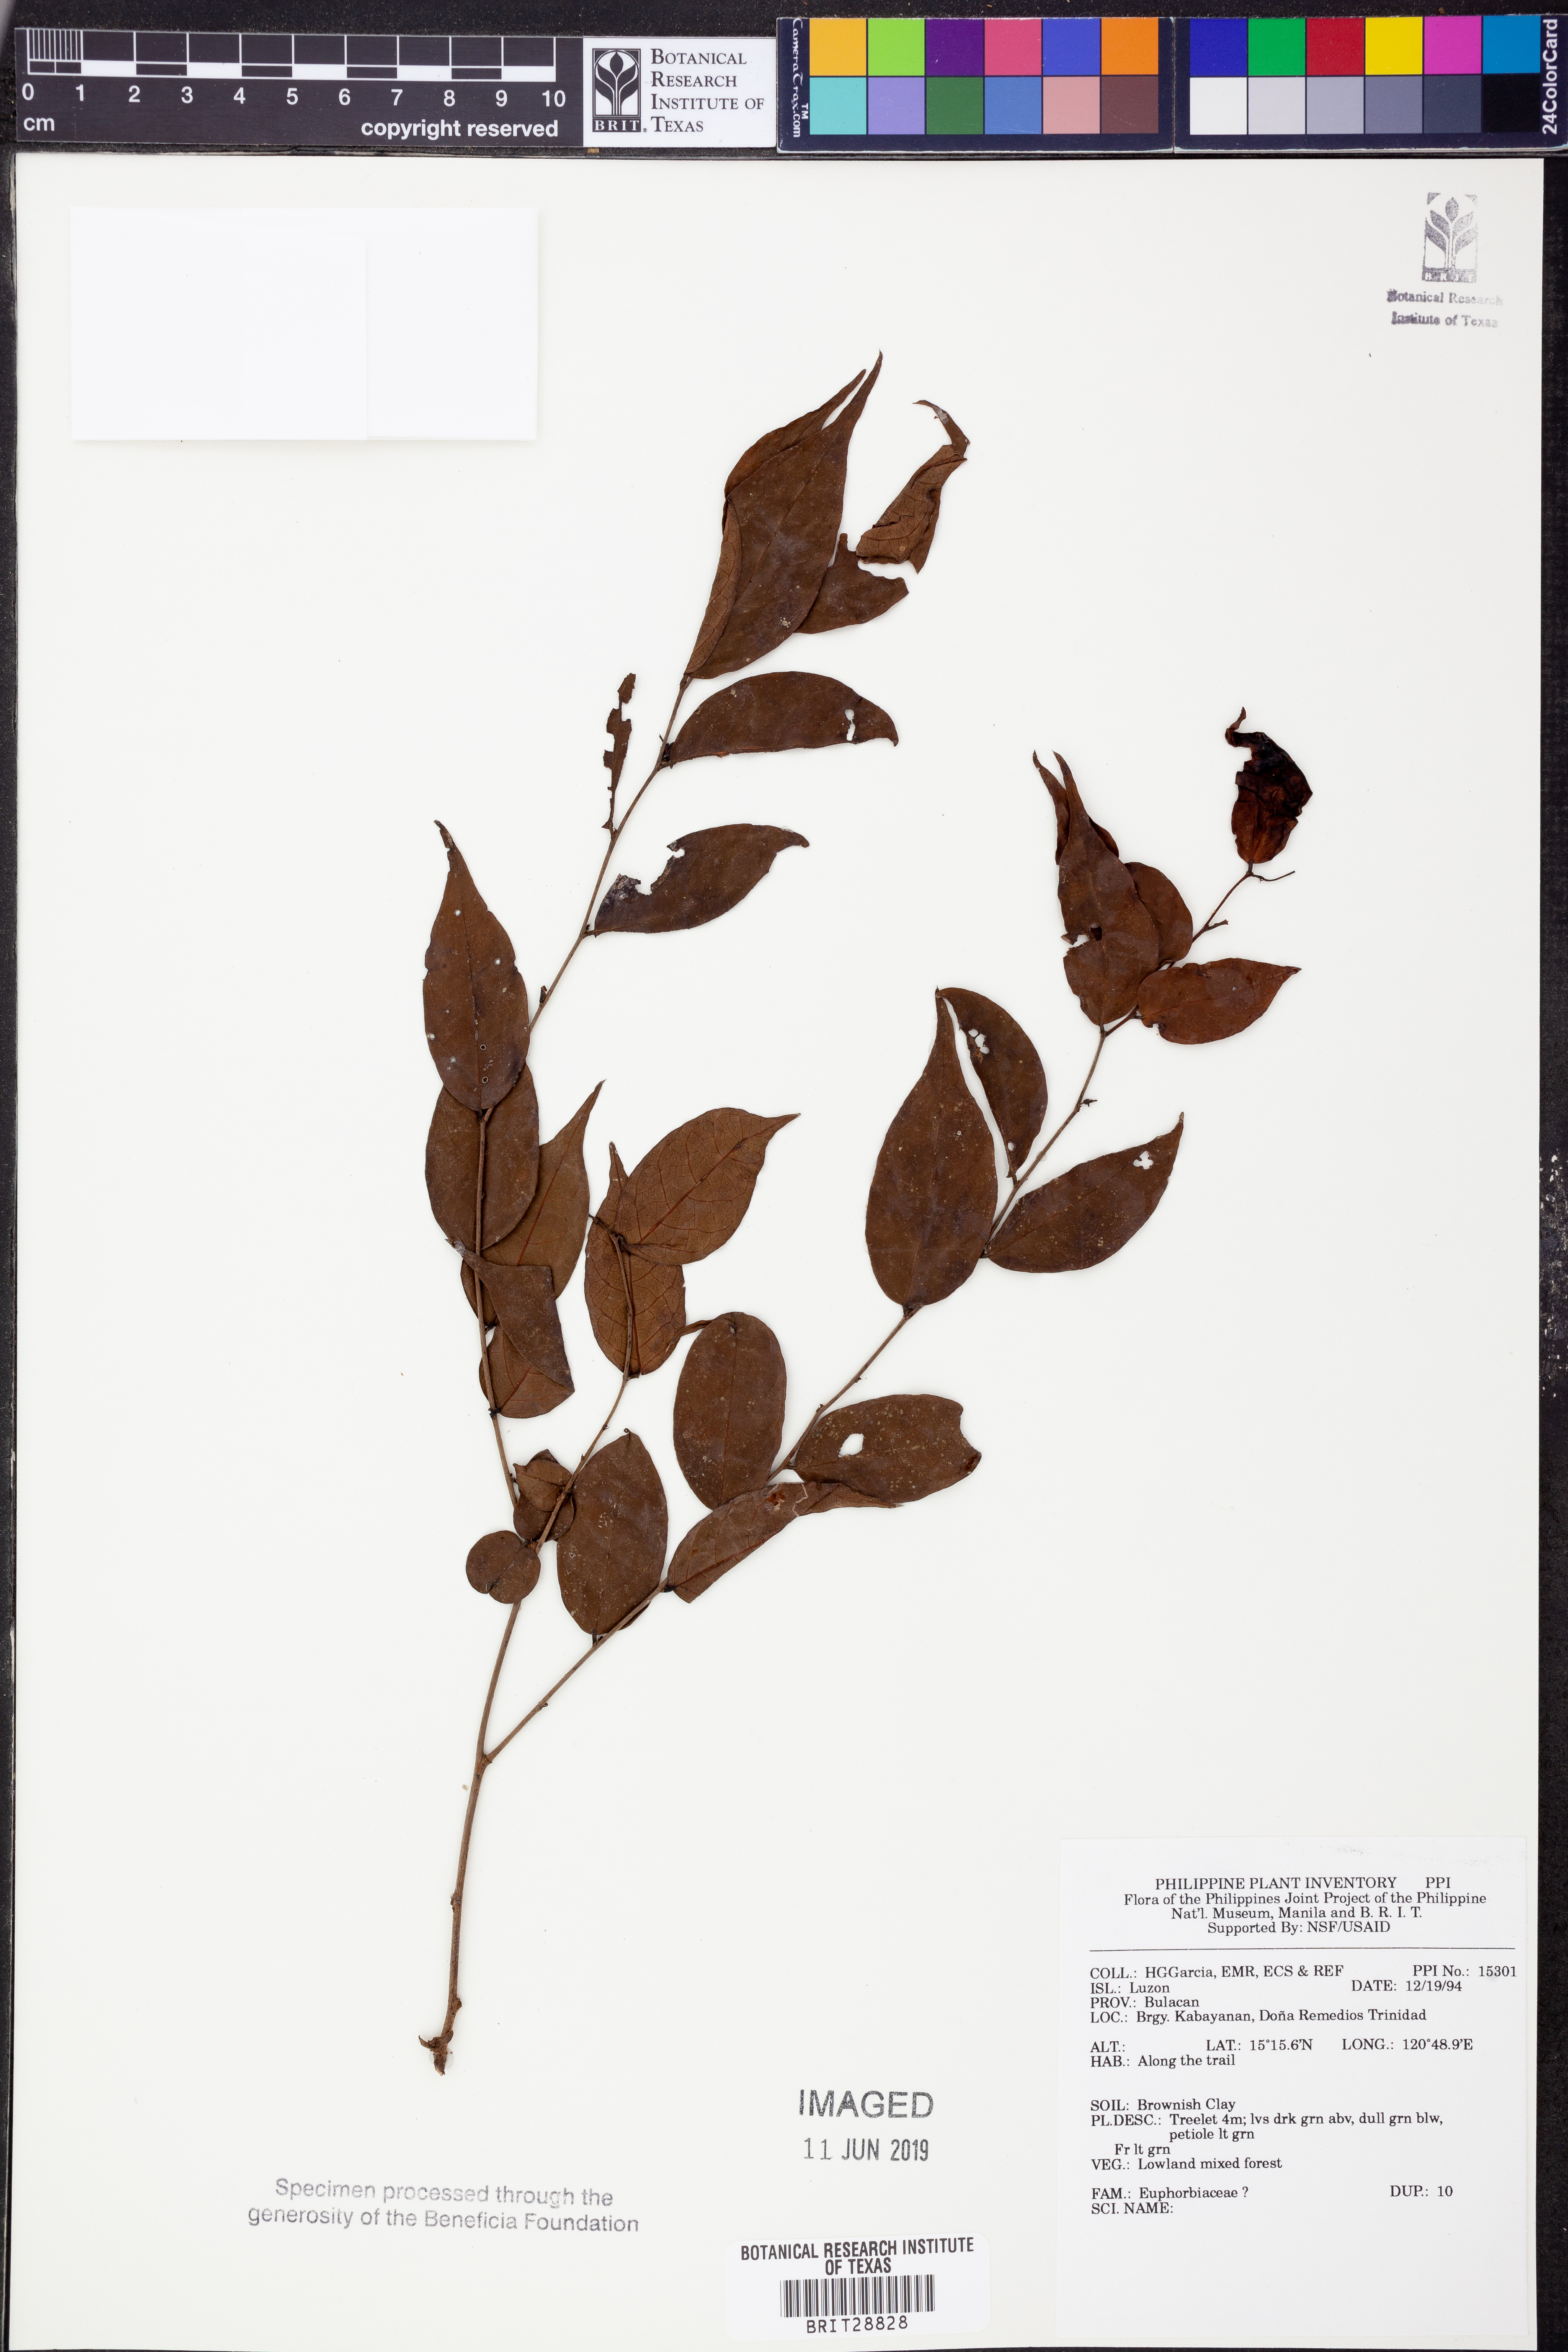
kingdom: Plantae
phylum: Tracheophyta
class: Magnoliopsida
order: Malpighiales
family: Euphorbiaceae
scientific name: Euphorbiaceae
